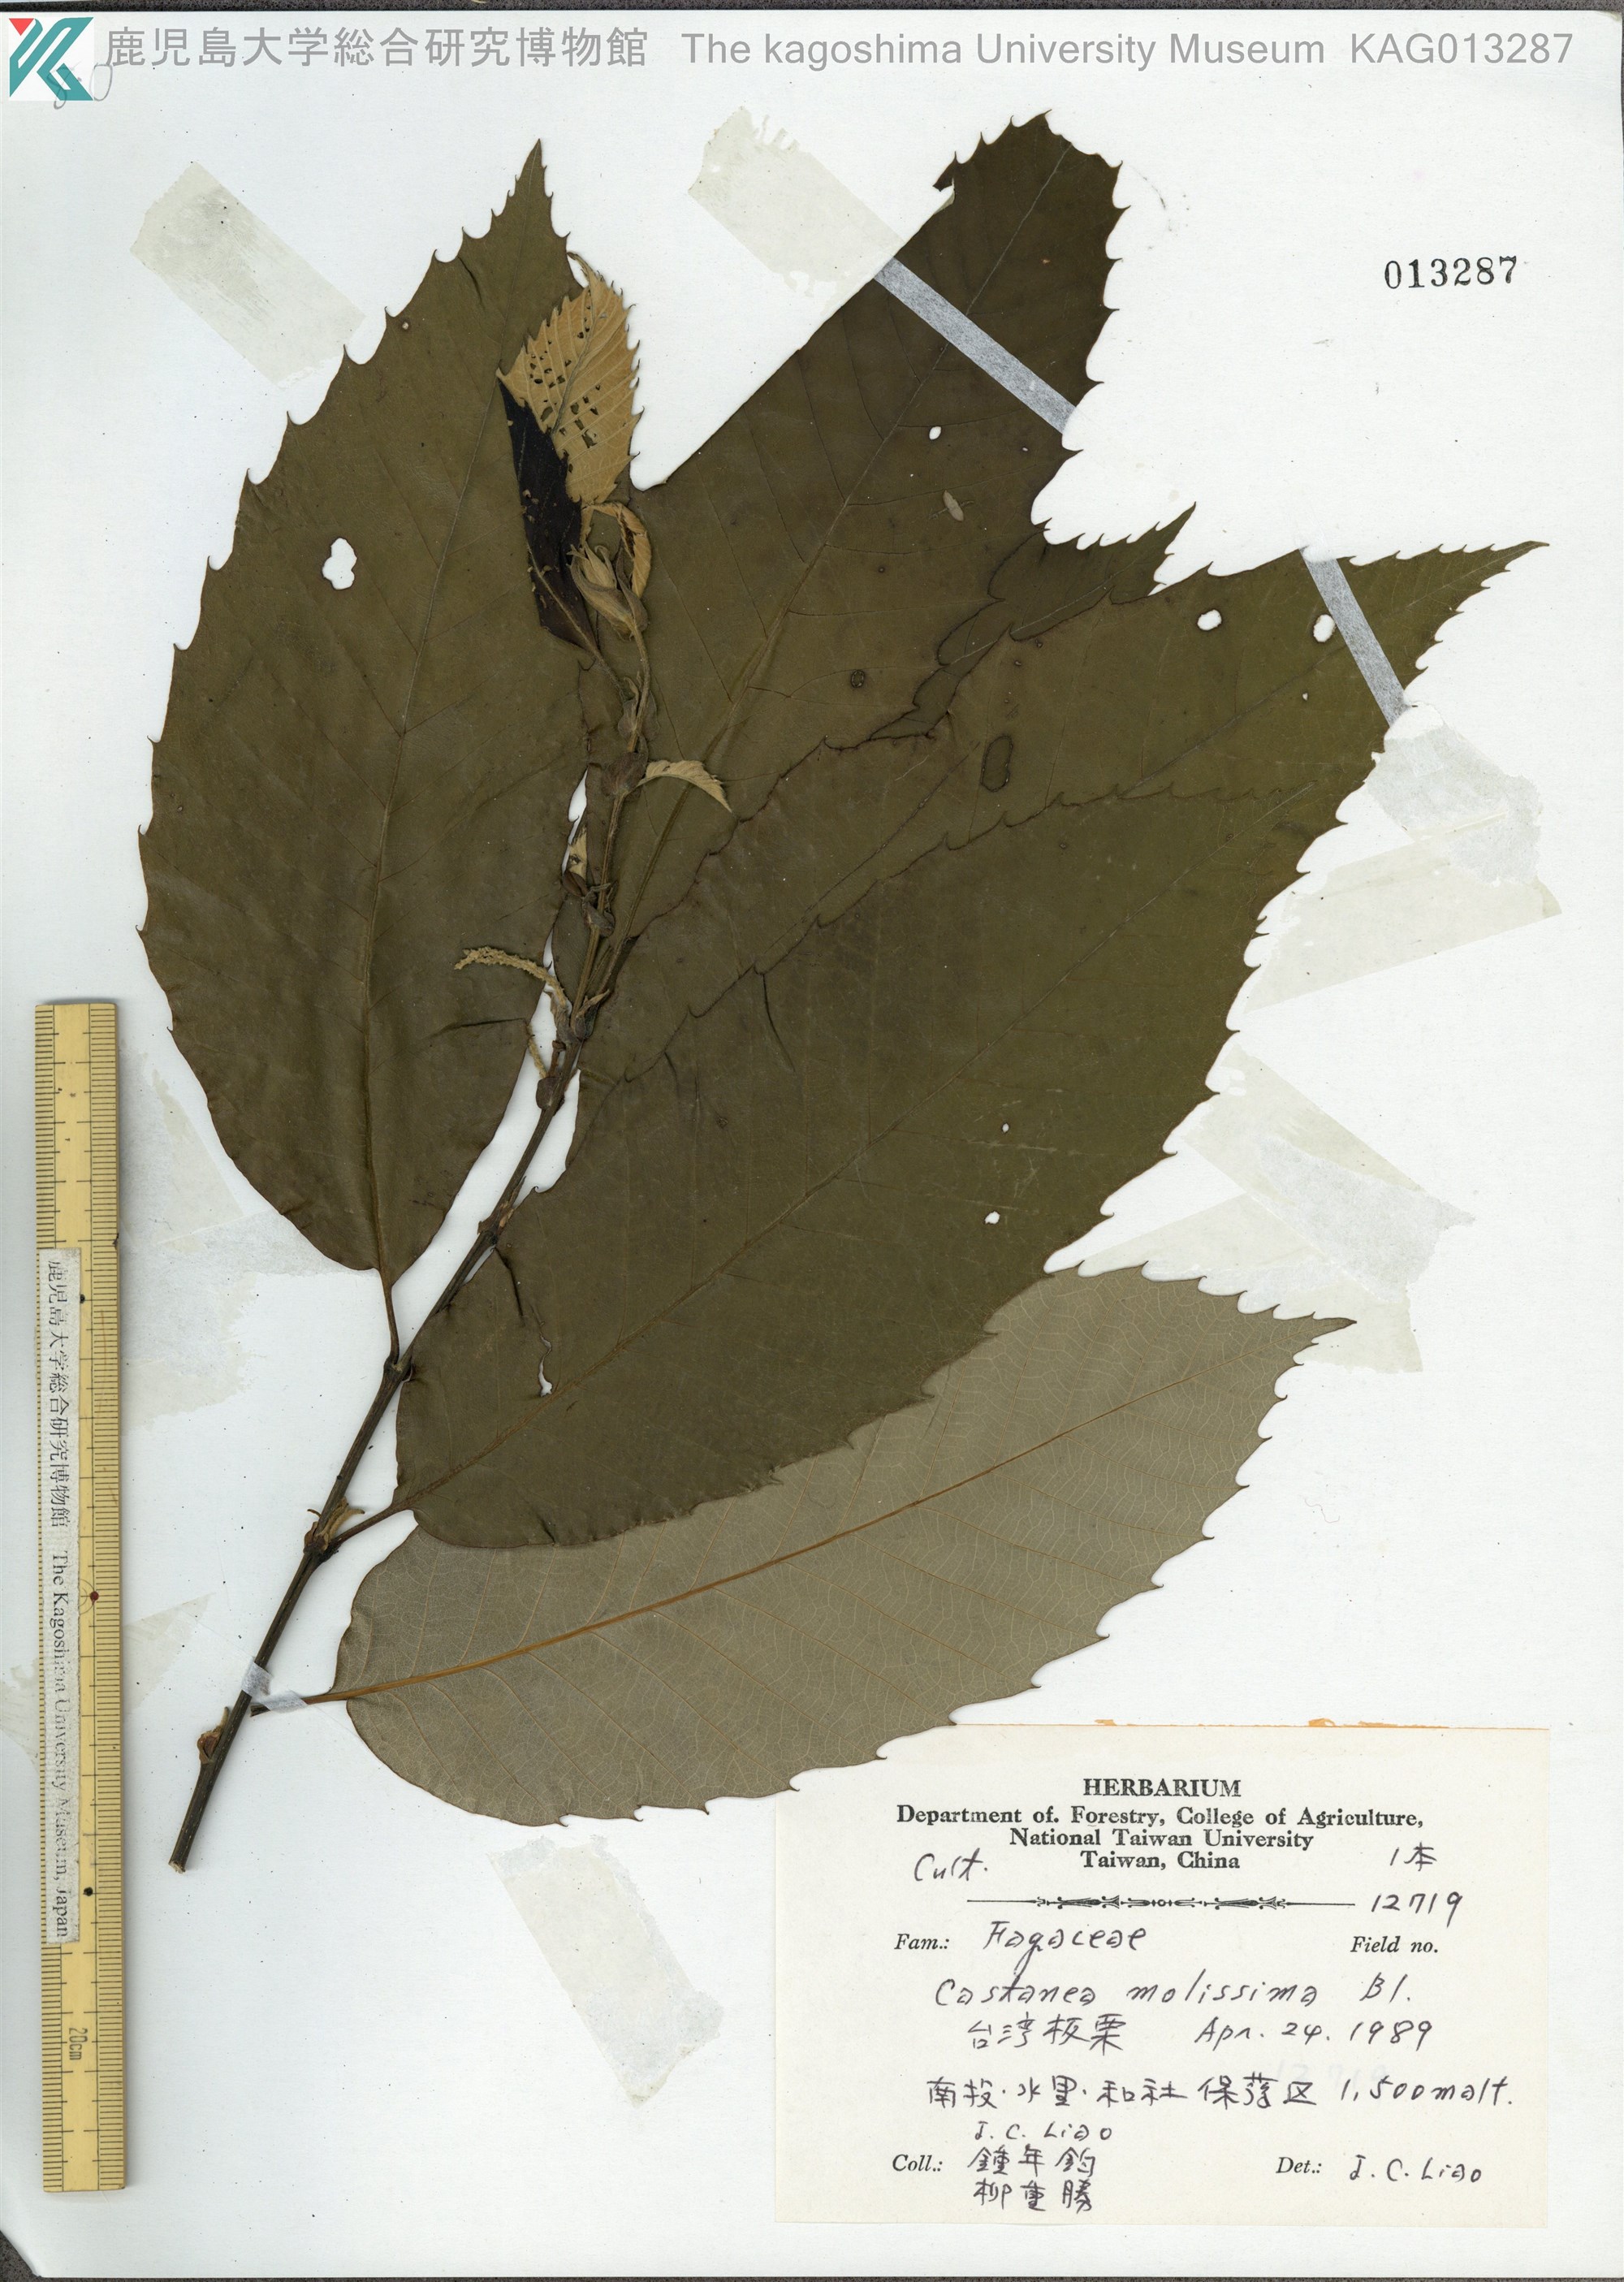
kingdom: Plantae
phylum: Tracheophyta
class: Magnoliopsida
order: Fagales
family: Fagaceae
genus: Castanea
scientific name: Castanea mollissima
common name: Chinese chestnut
